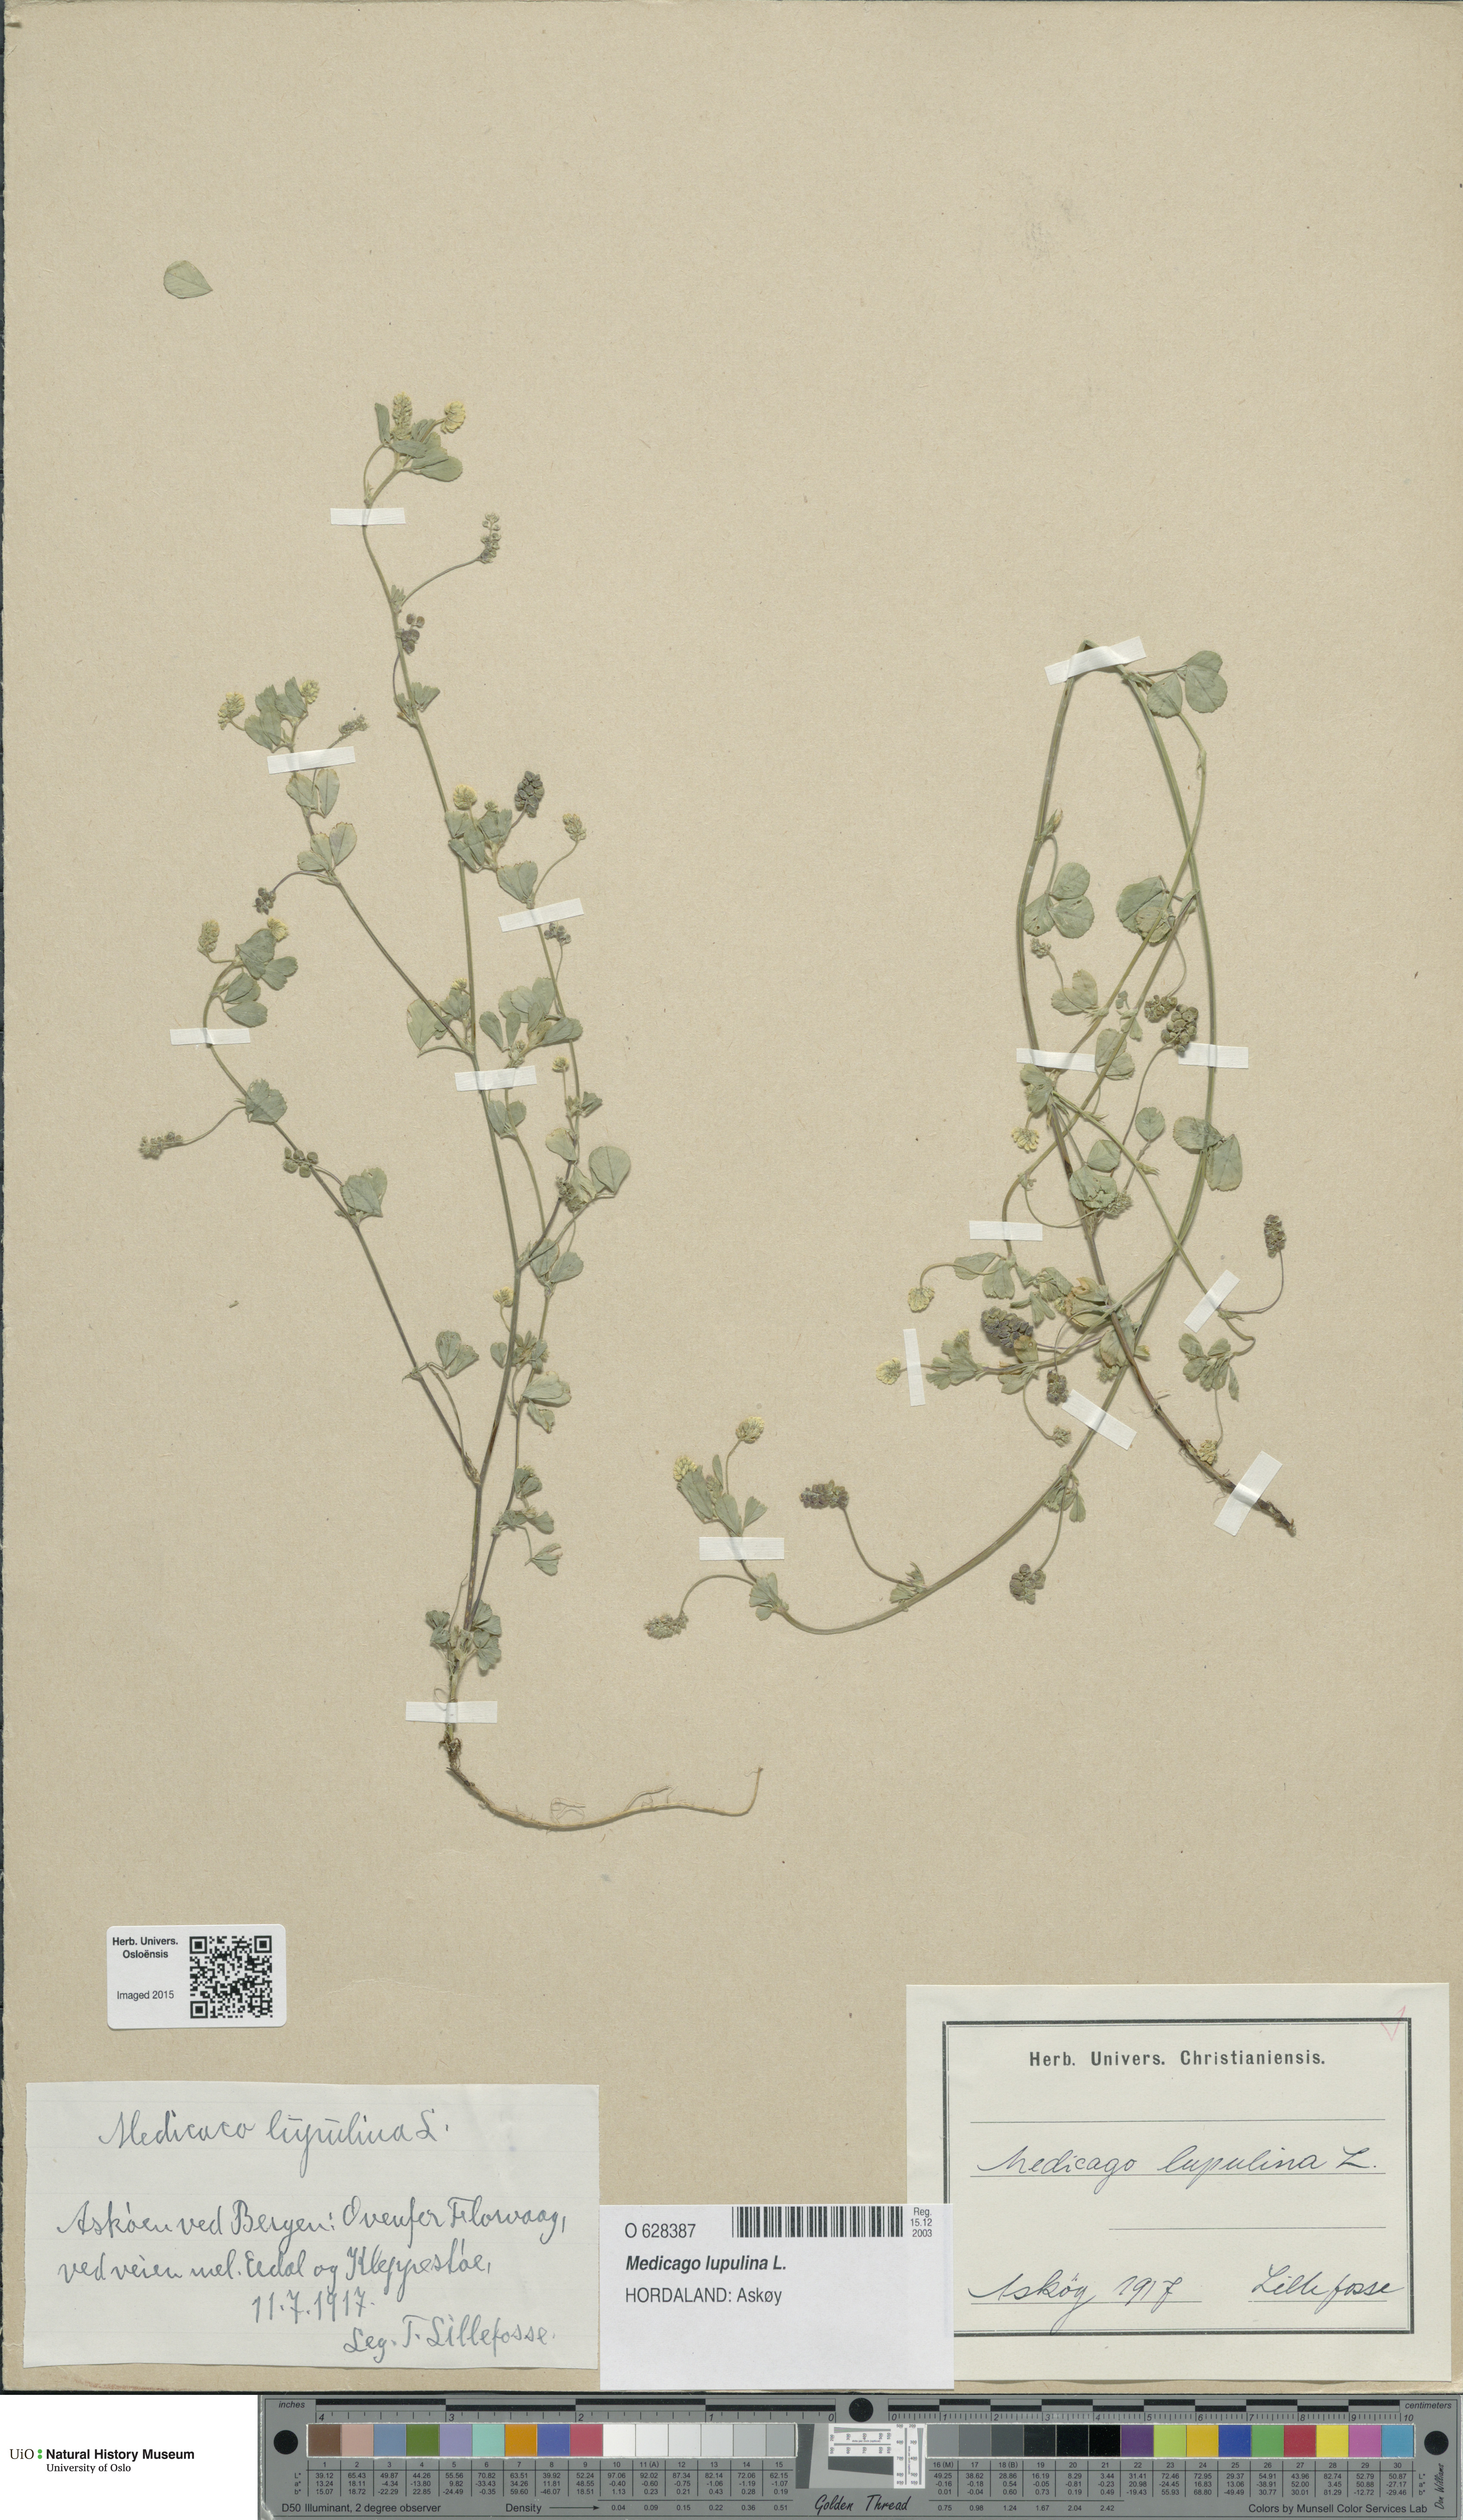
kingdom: Plantae
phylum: Tracheophyta
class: Magnoliopsida
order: Fabales
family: Fabaceae
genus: Medicago
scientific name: Medicago lupulina
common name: Black medick
